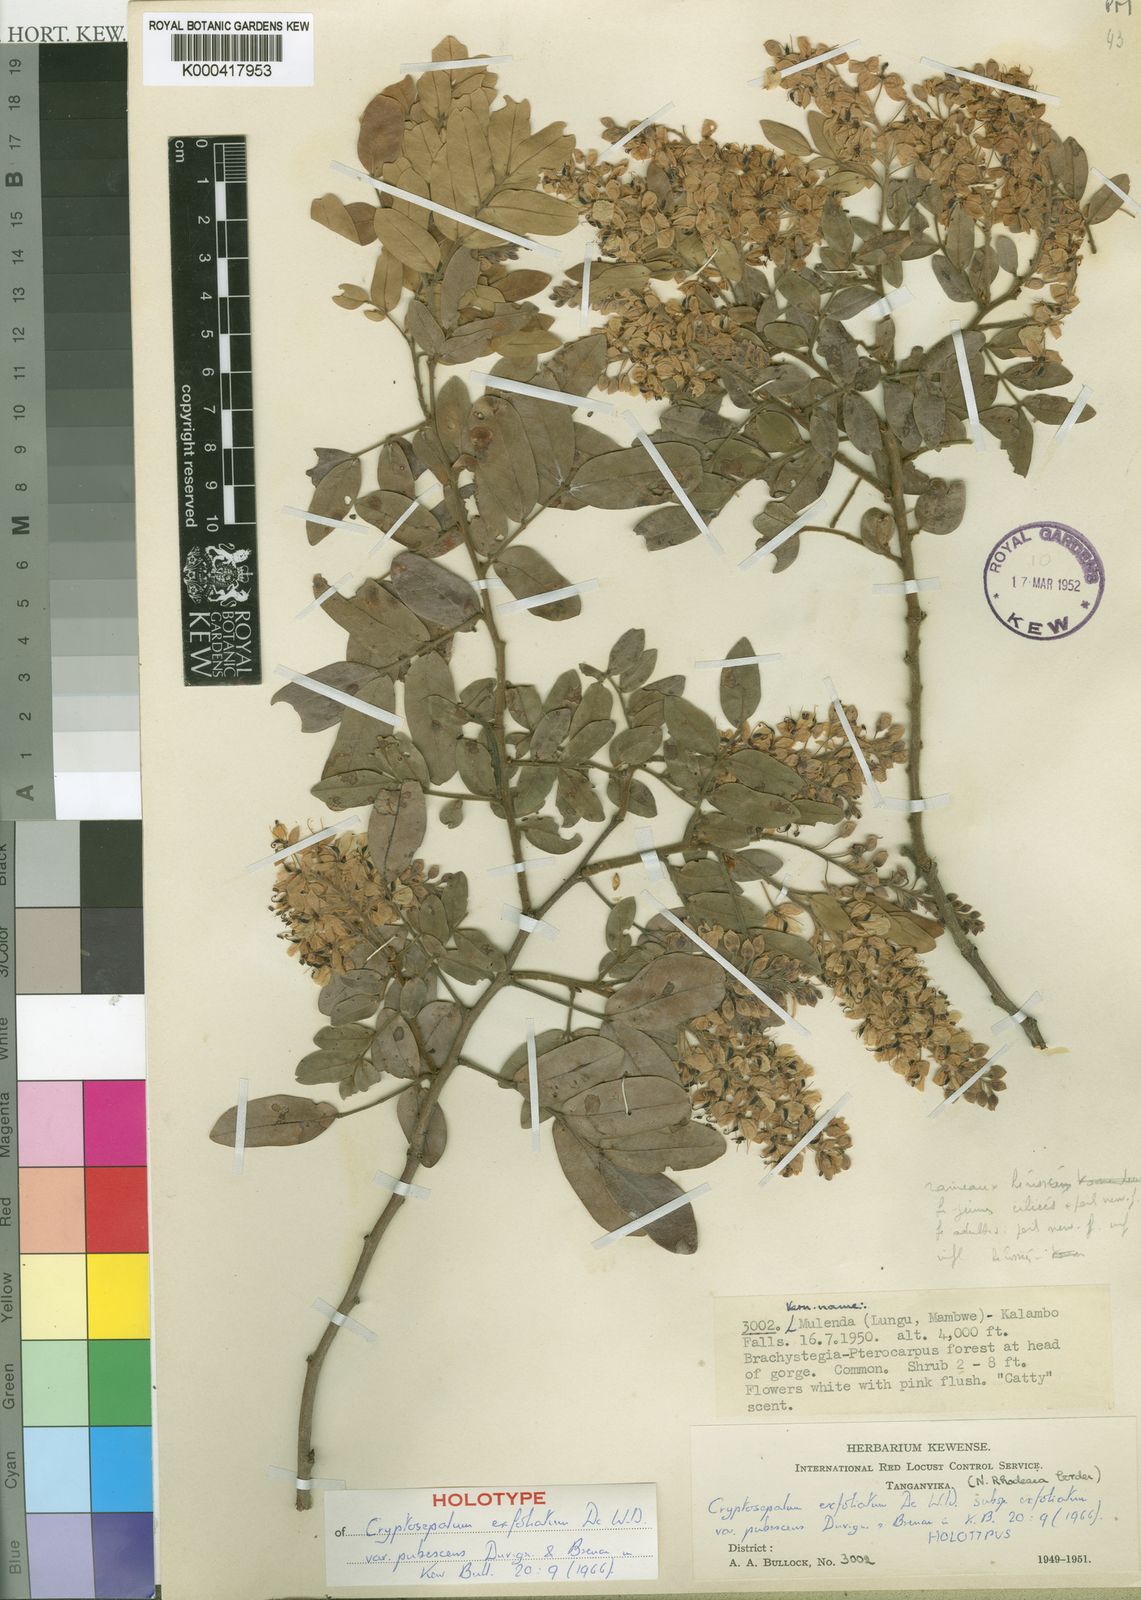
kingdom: Plantae
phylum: Tracheophyta
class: Magnoliopsida
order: Fabales
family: Fabaceae
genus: Cryptosepalum
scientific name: Cryptosepalum exfoliatum
